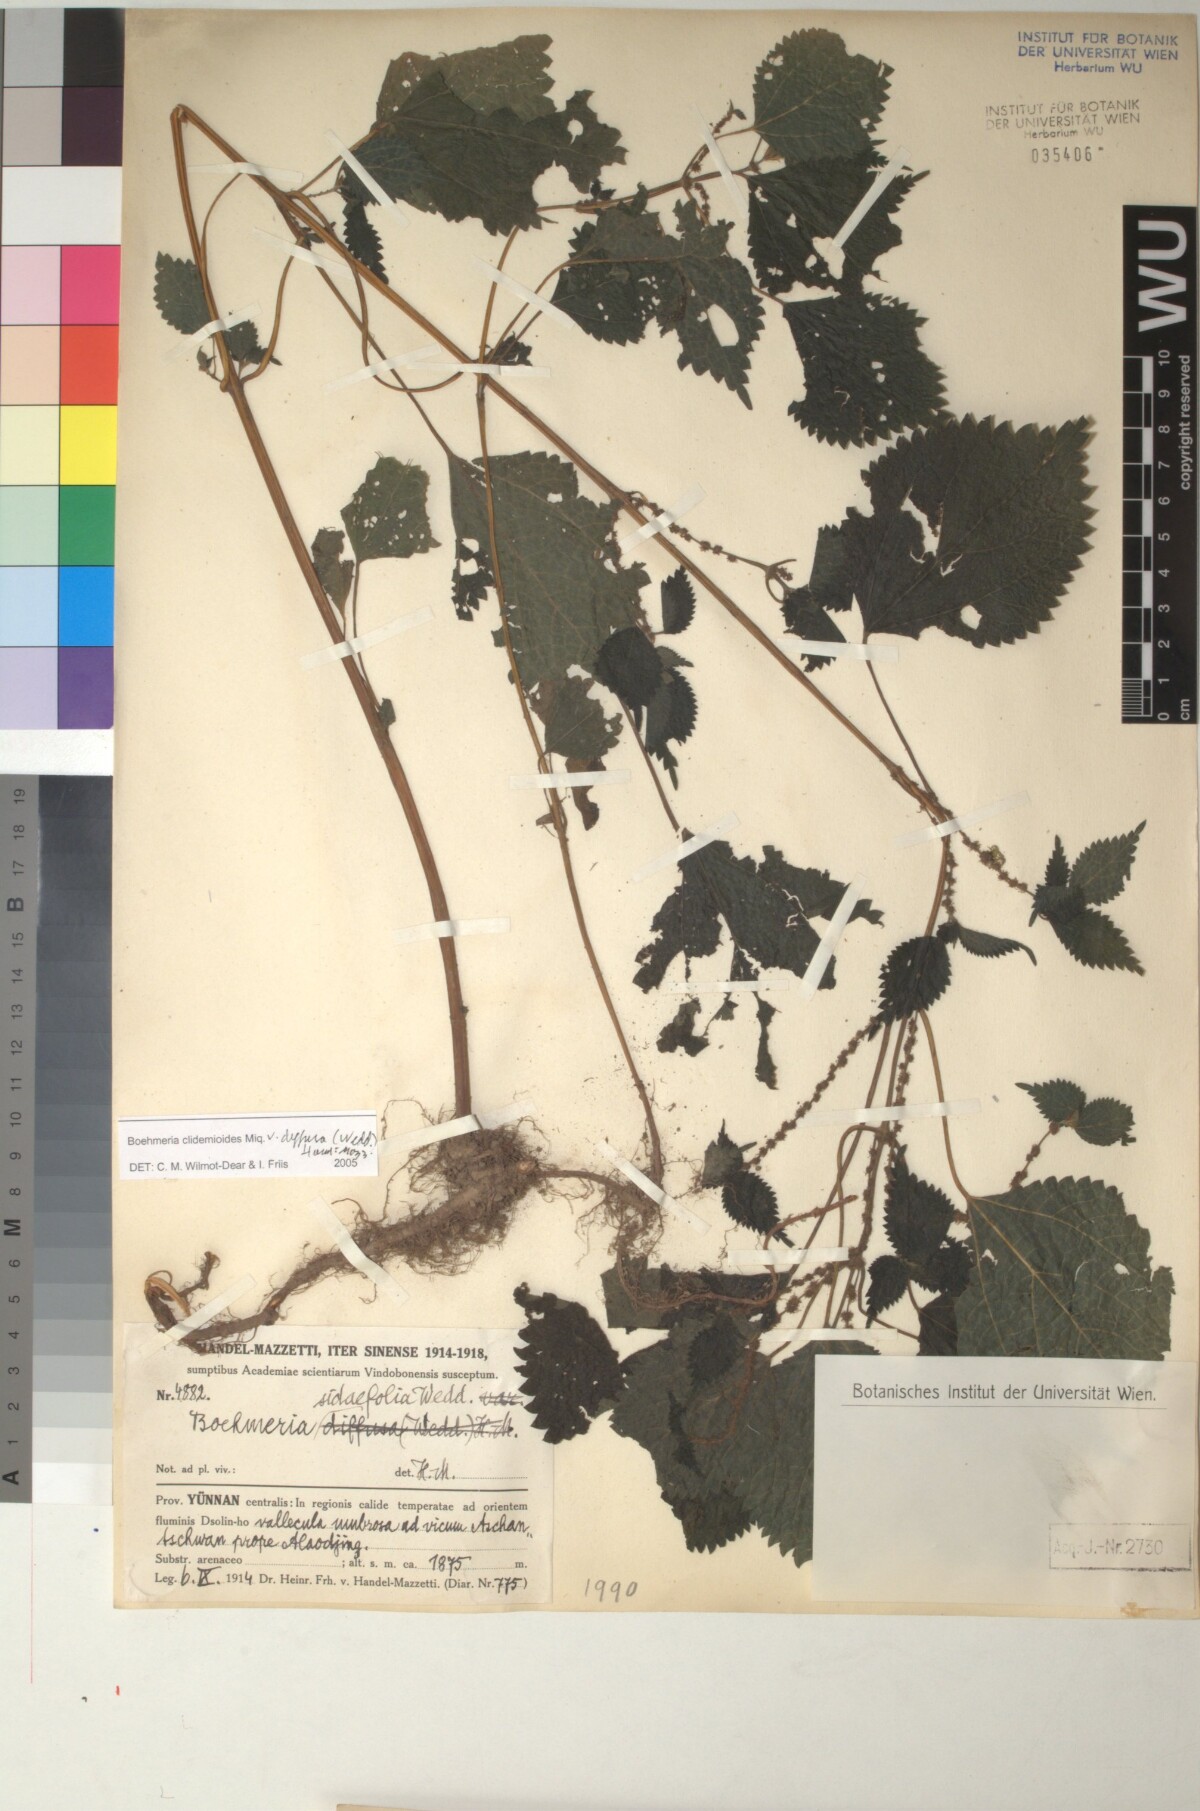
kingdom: Plantae
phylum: Tracheophyta
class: Magnoliopsida
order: Rosales
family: Urticaceae
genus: Boehmeria
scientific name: Boehmeria clidemioides
